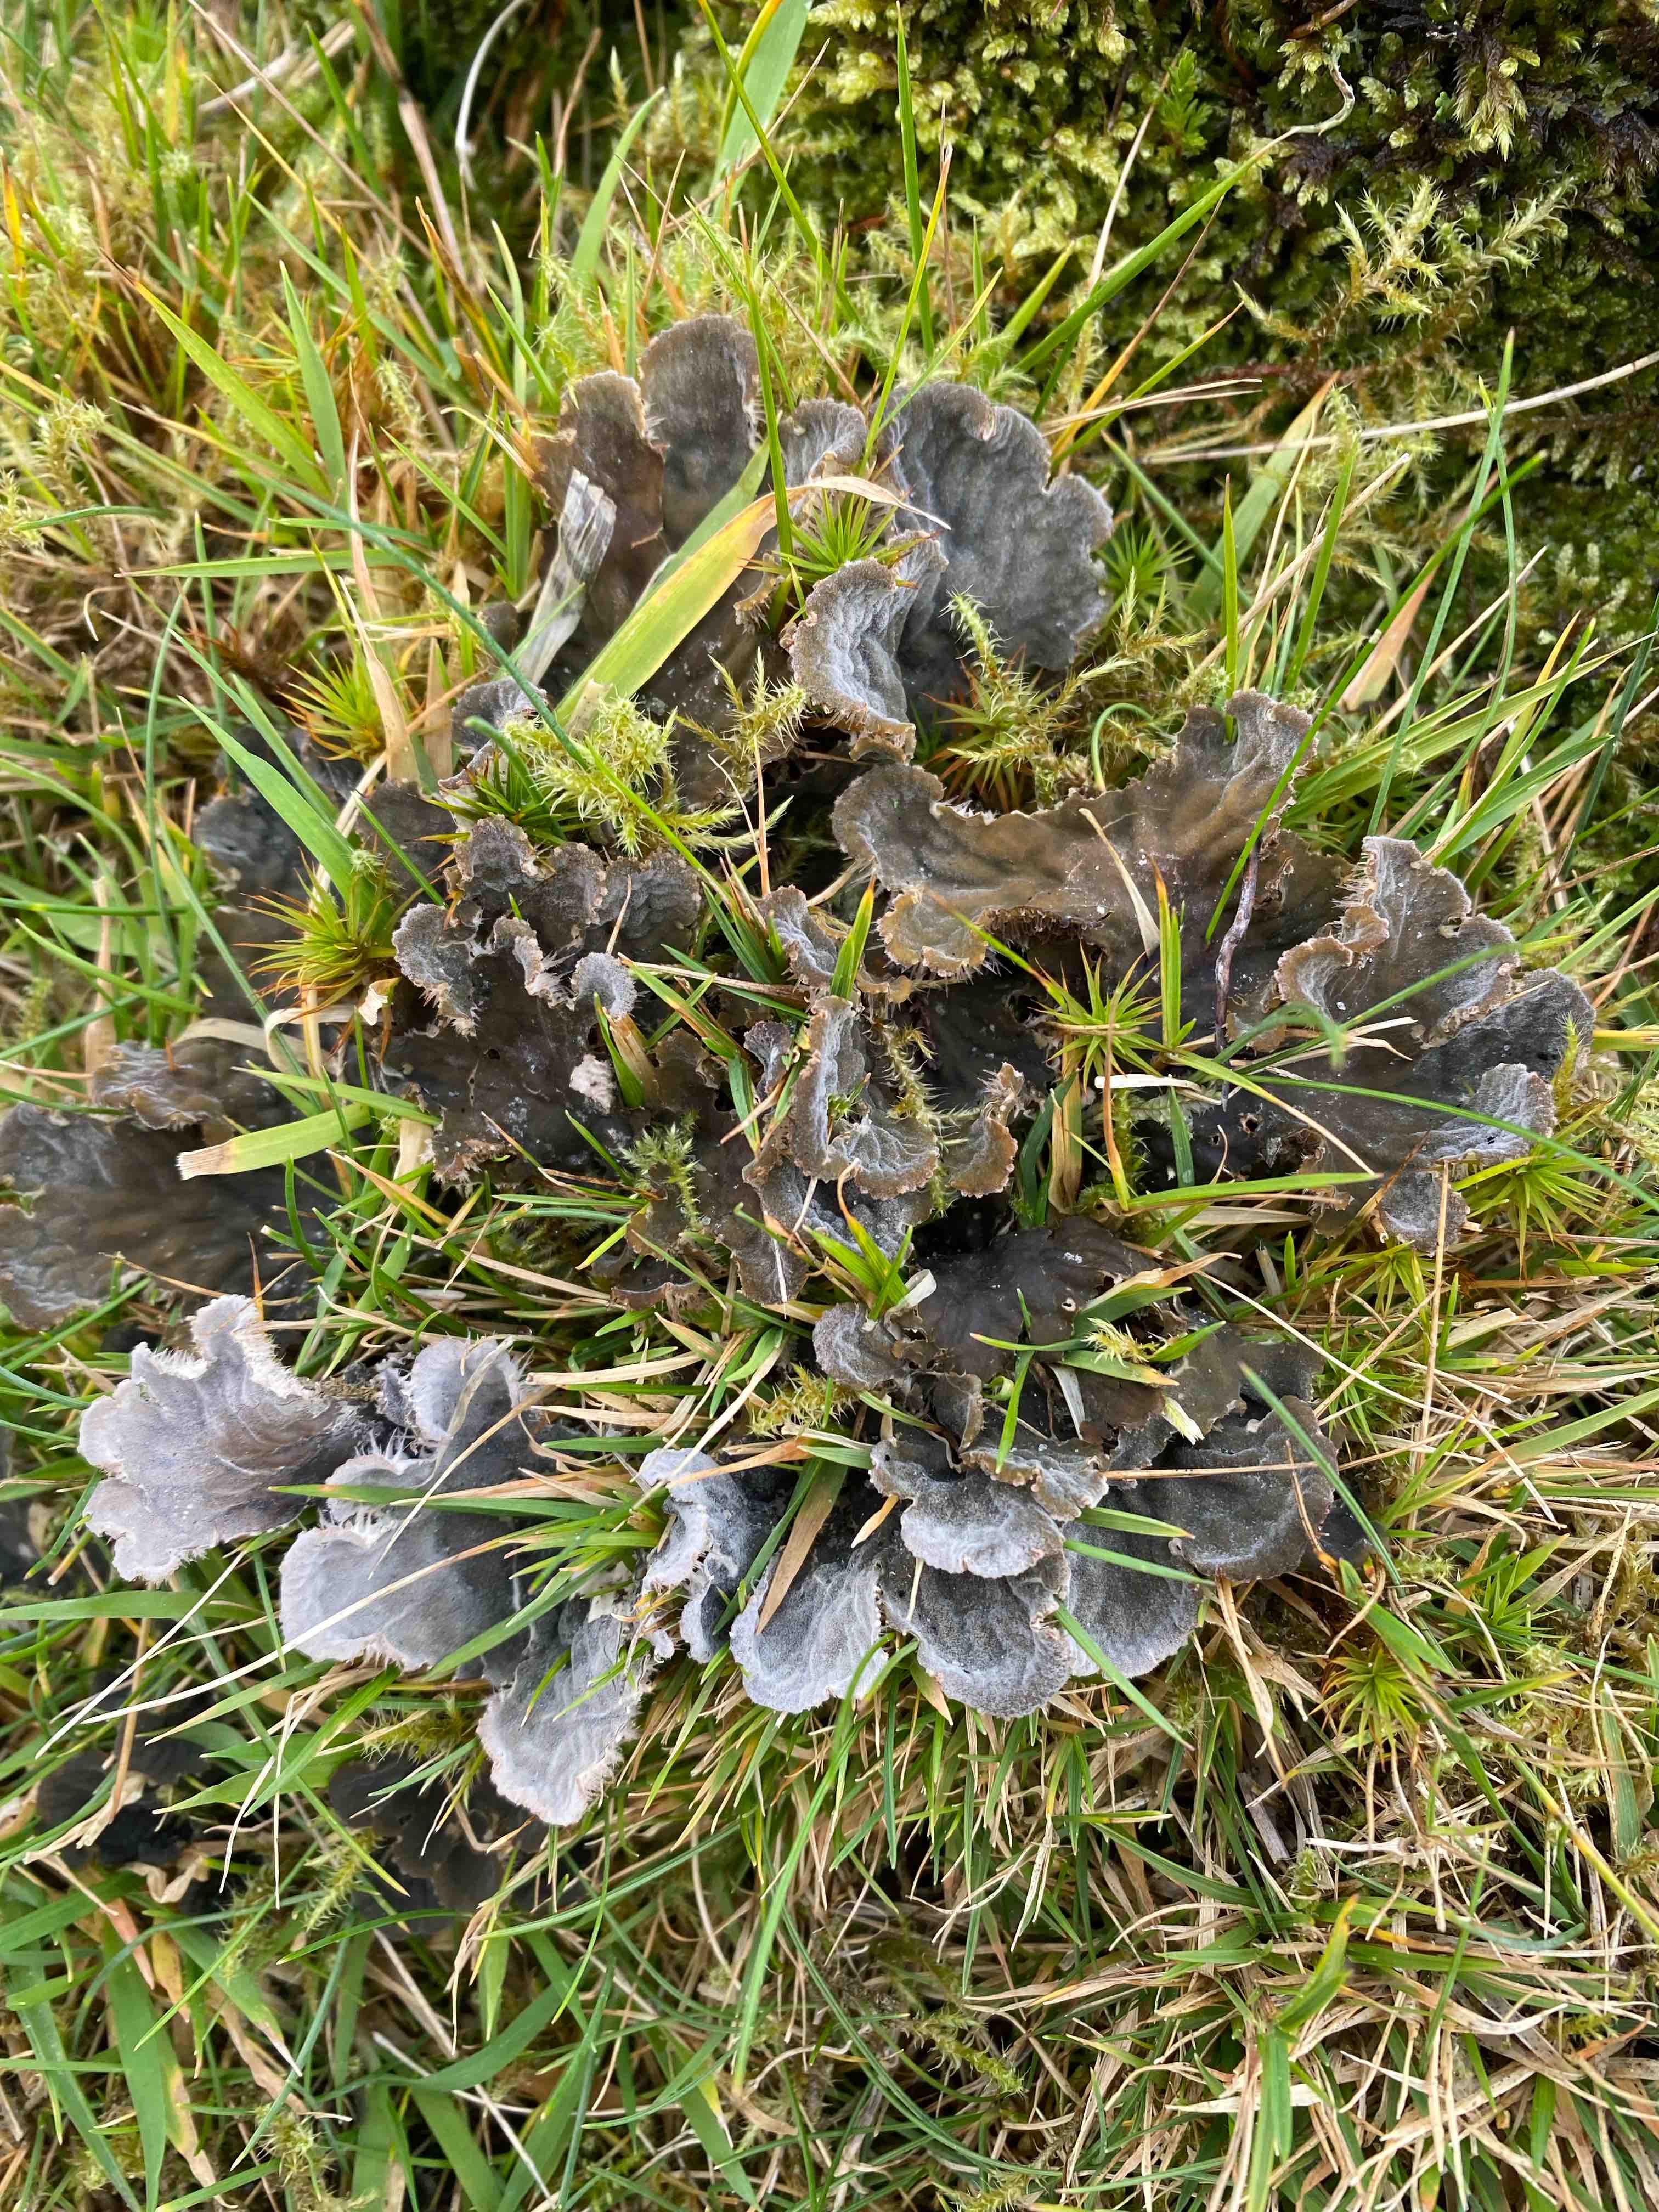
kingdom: Fungi
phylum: Ascomycota
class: Lecanoromycetes
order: Peltigerales
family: Peltigeraceae
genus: Peltigera
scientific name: Peltigera membranacea
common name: tynd skjoldlav
